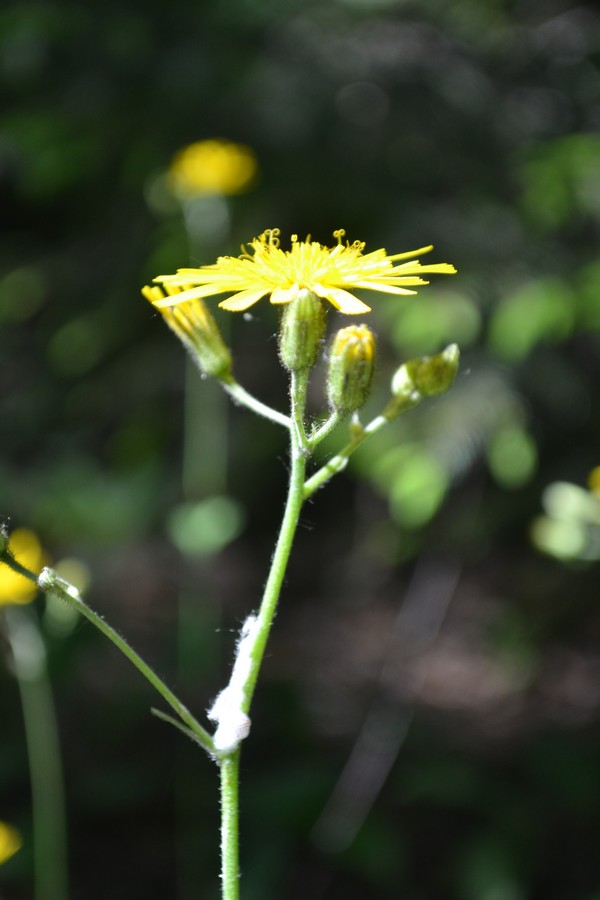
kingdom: Plantae
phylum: Tracheophyta
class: Magnoliopsida
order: Asterales
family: Asteraceae
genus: Hieracium
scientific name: Hieracium lachenalii
